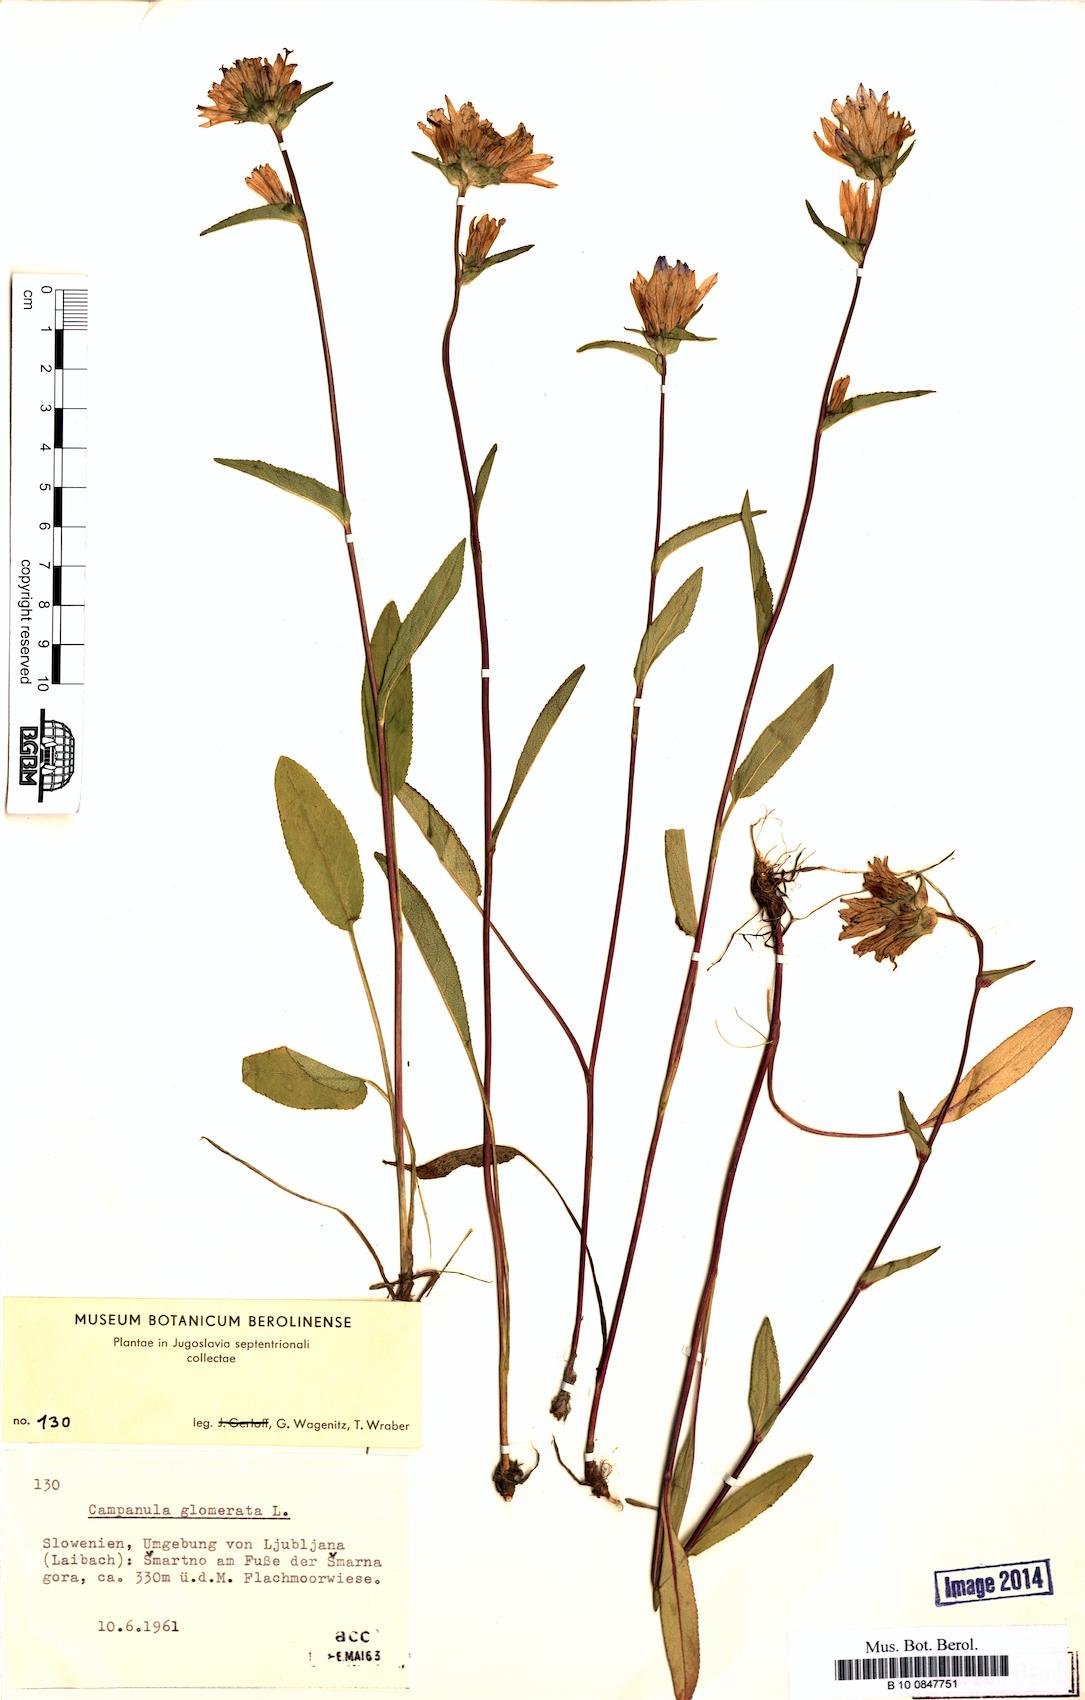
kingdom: Plantae
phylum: Tracheophyta
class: Magnoliopsida
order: Asterales
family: Campanulaceae
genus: Campanula
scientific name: Campanula glomerata
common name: Clustered bellflower
